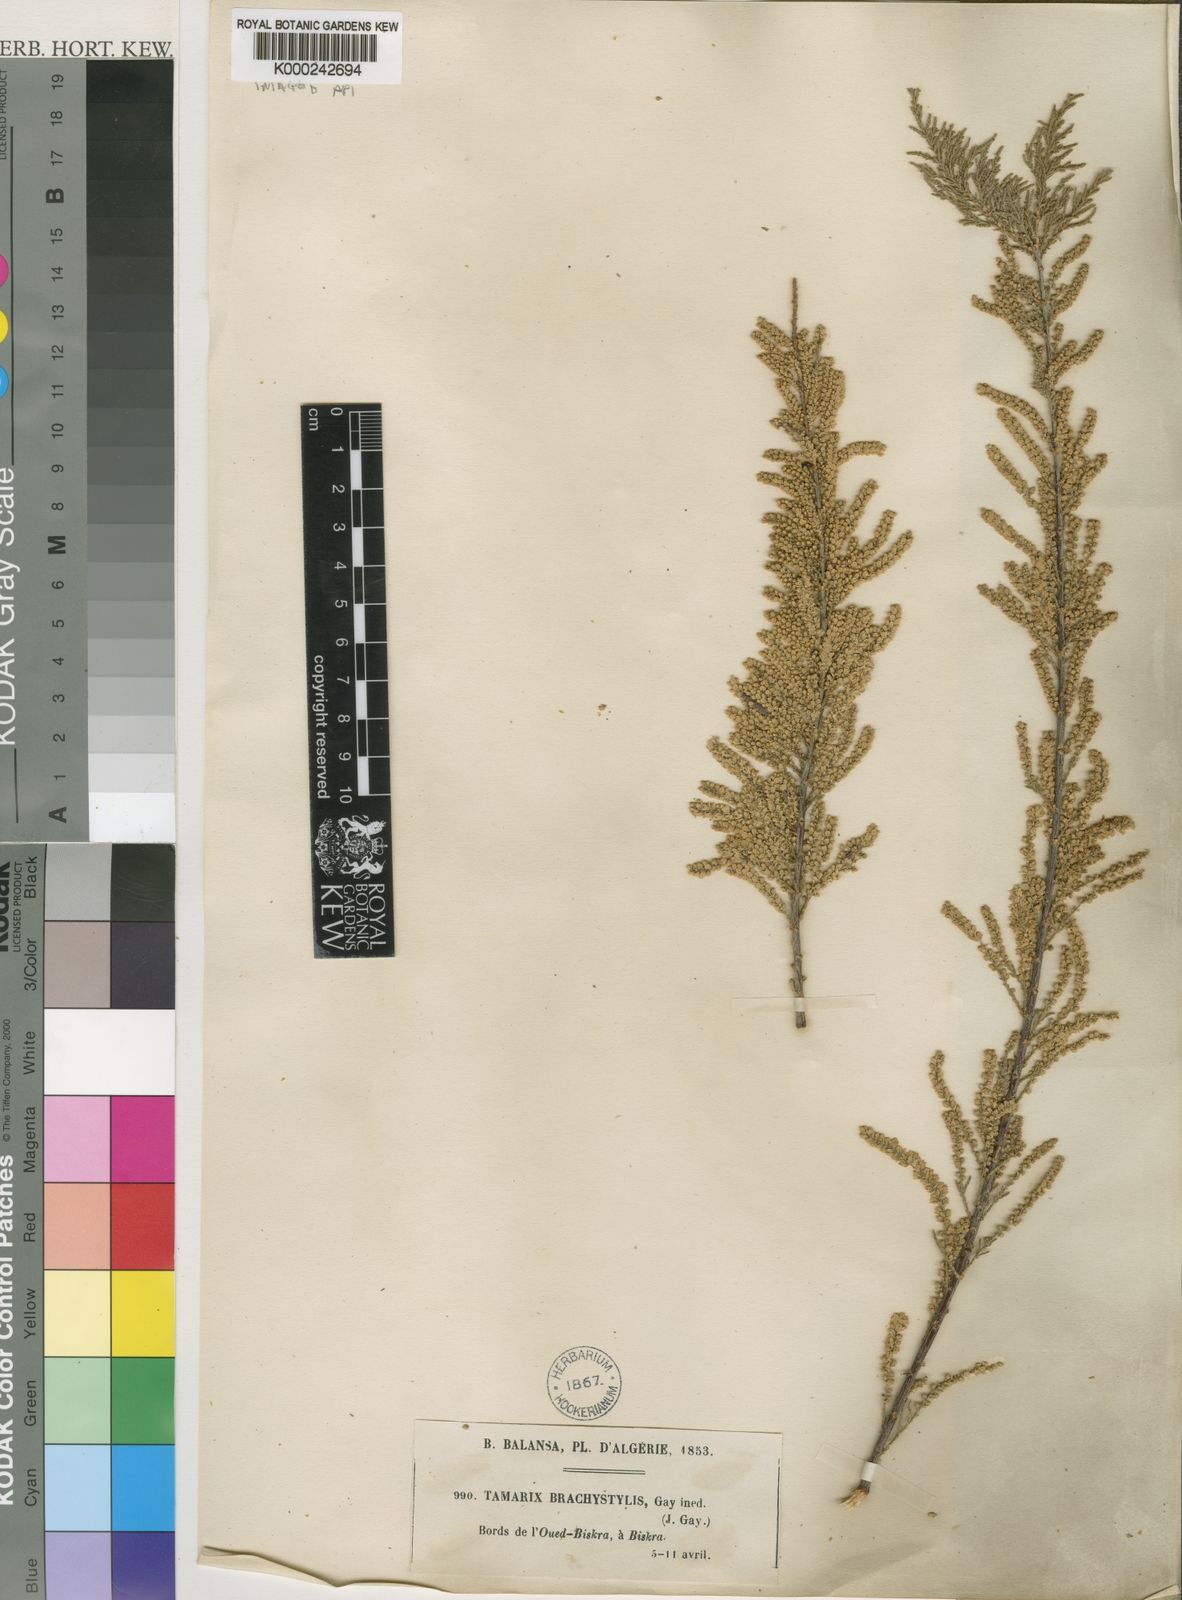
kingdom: Plantae
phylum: Tracheophyta
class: Magnoliopsida
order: Caryophyllales
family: Tamaricaceae
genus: Tamarix
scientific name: Tamarix
